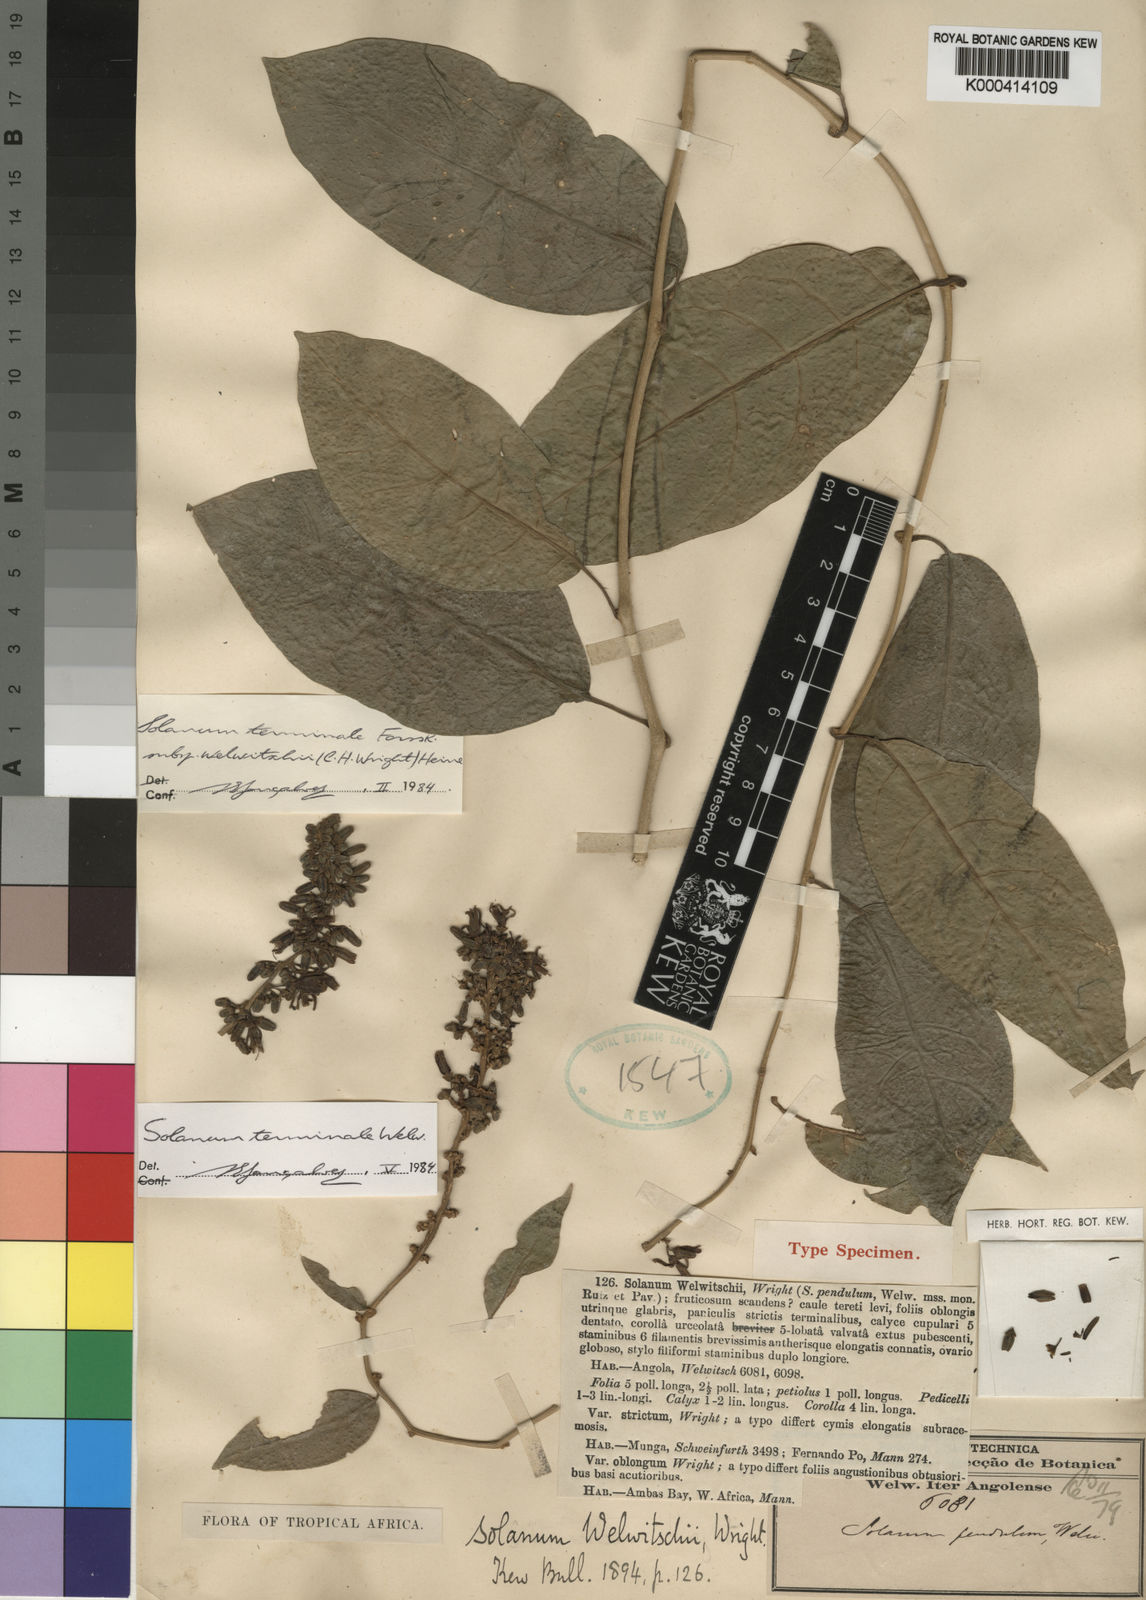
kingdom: Plantae
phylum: Tracheophyta
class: Magnoliopsida
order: Solanales
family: Solanaceae
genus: Solanum
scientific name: Solanum terminale
